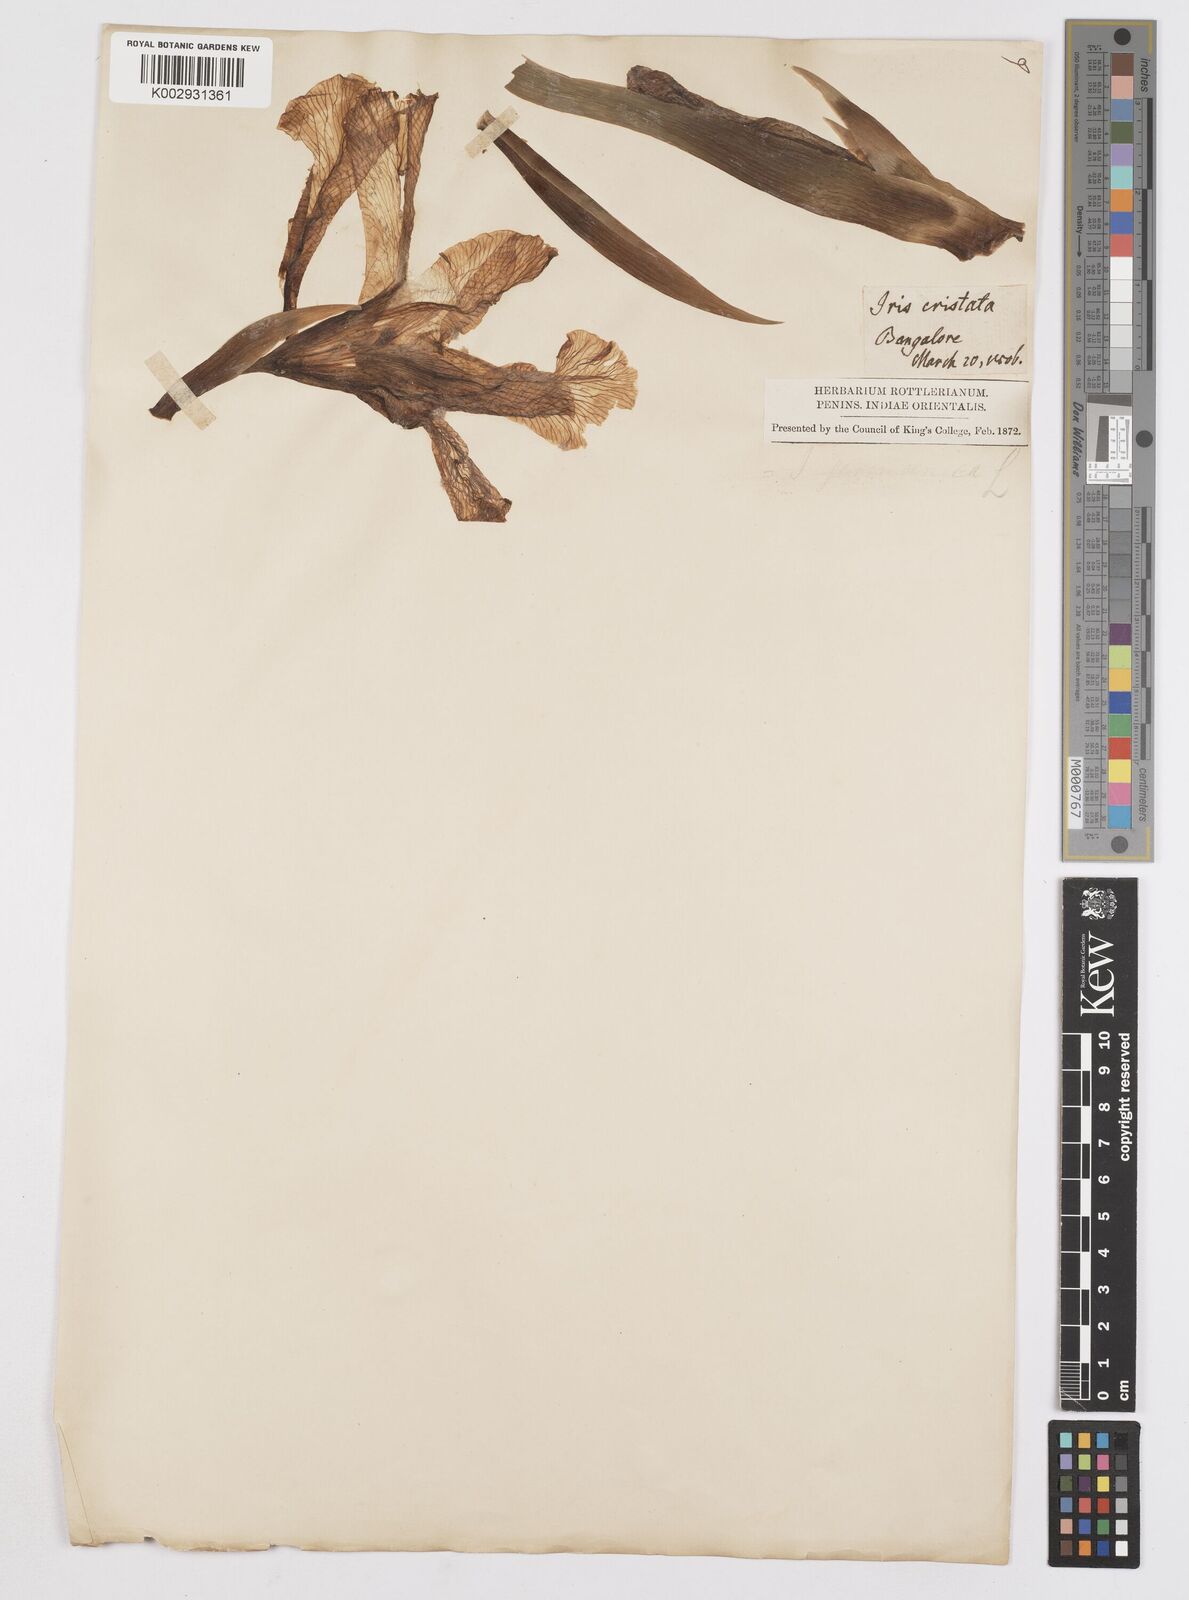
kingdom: Plantae
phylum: Tracheophyta
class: Liliopsida
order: Asparagales
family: Iridaceae
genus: Iris
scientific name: Iris halophila
